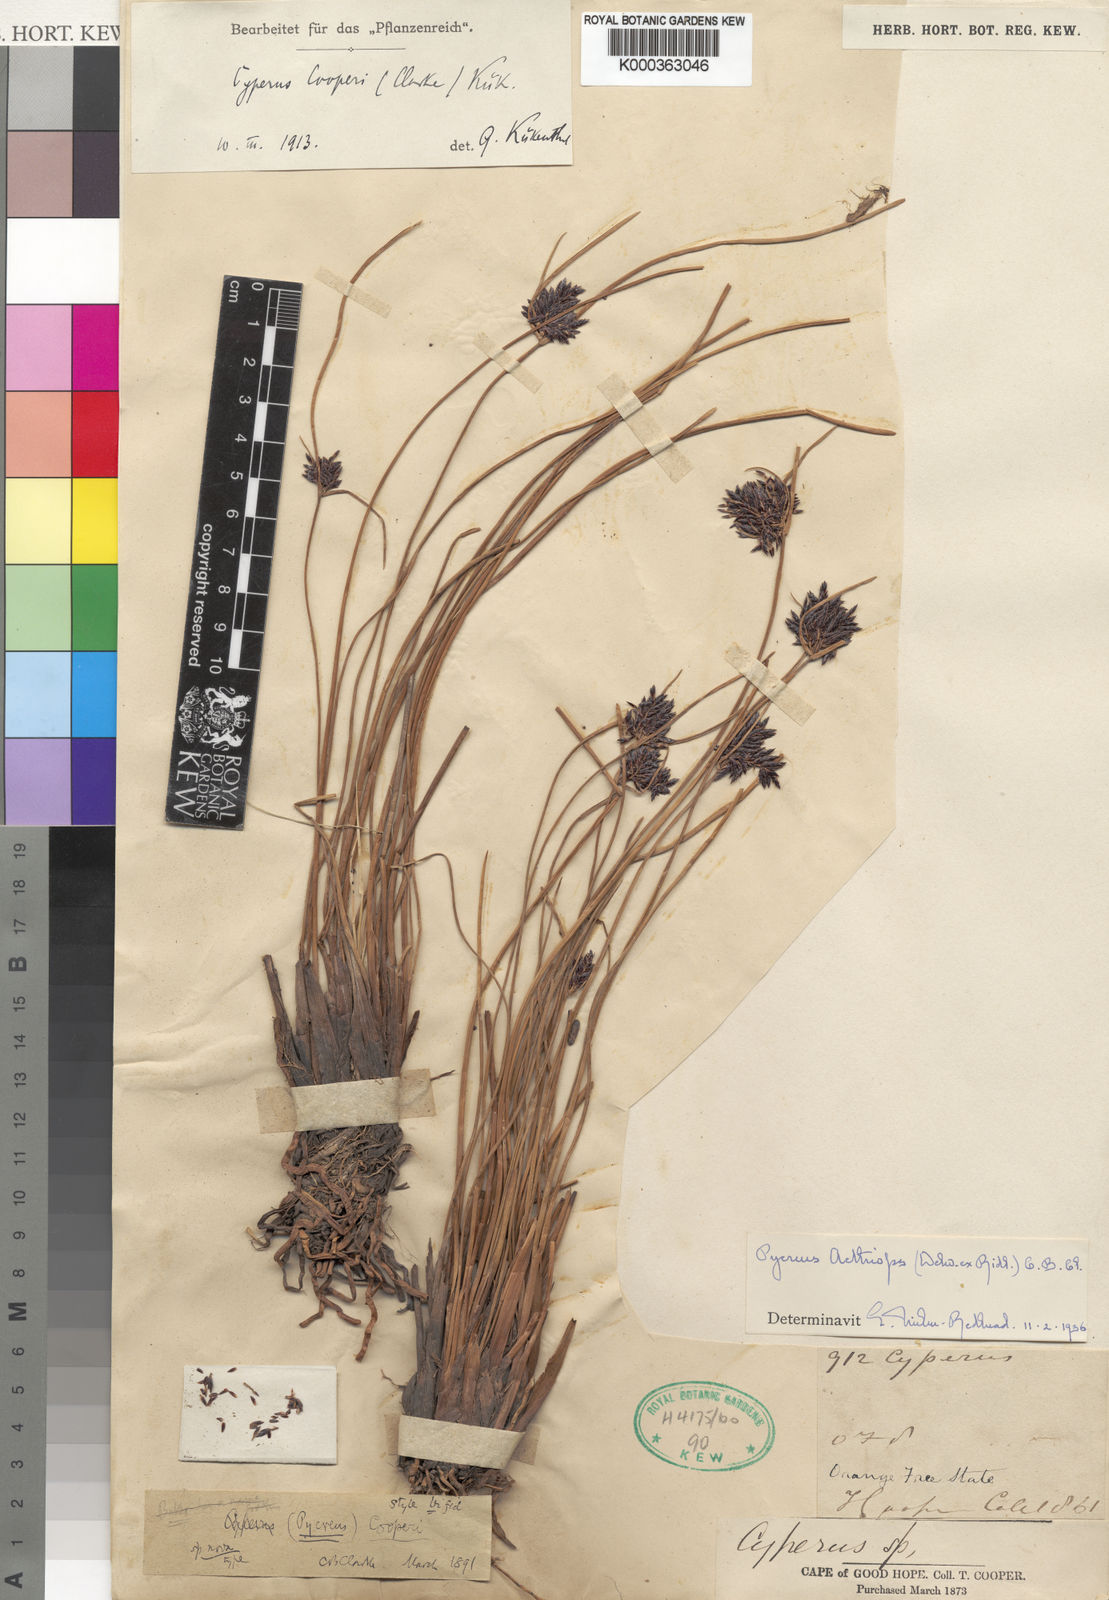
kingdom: Plantae
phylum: Tracheophyta
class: Liliopsida
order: Poales
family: Cyperaceae
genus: Cyperus
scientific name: Cyperus aethiops
